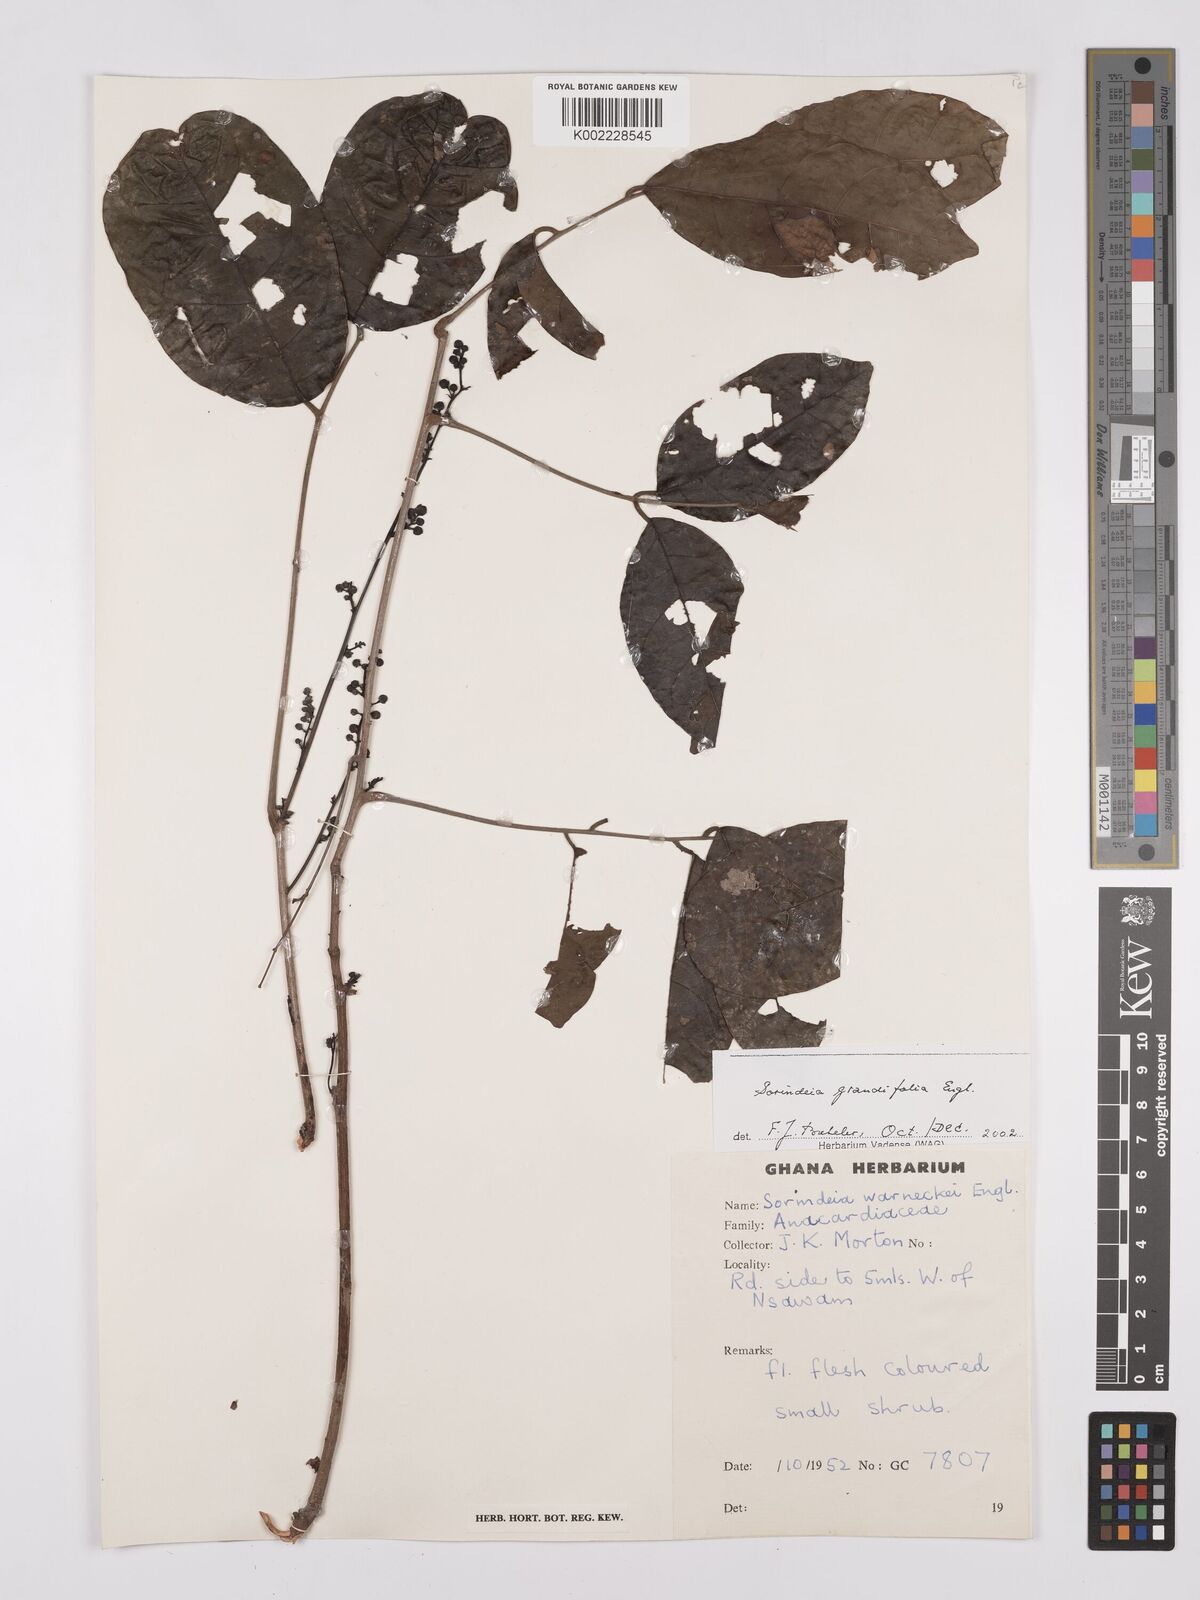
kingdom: Plantae
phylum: Tracheophyta
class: Magnoliopsida
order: Sapindales
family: Anacardiaceae
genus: Sorindeia
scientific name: Sorindeia grandifolia
